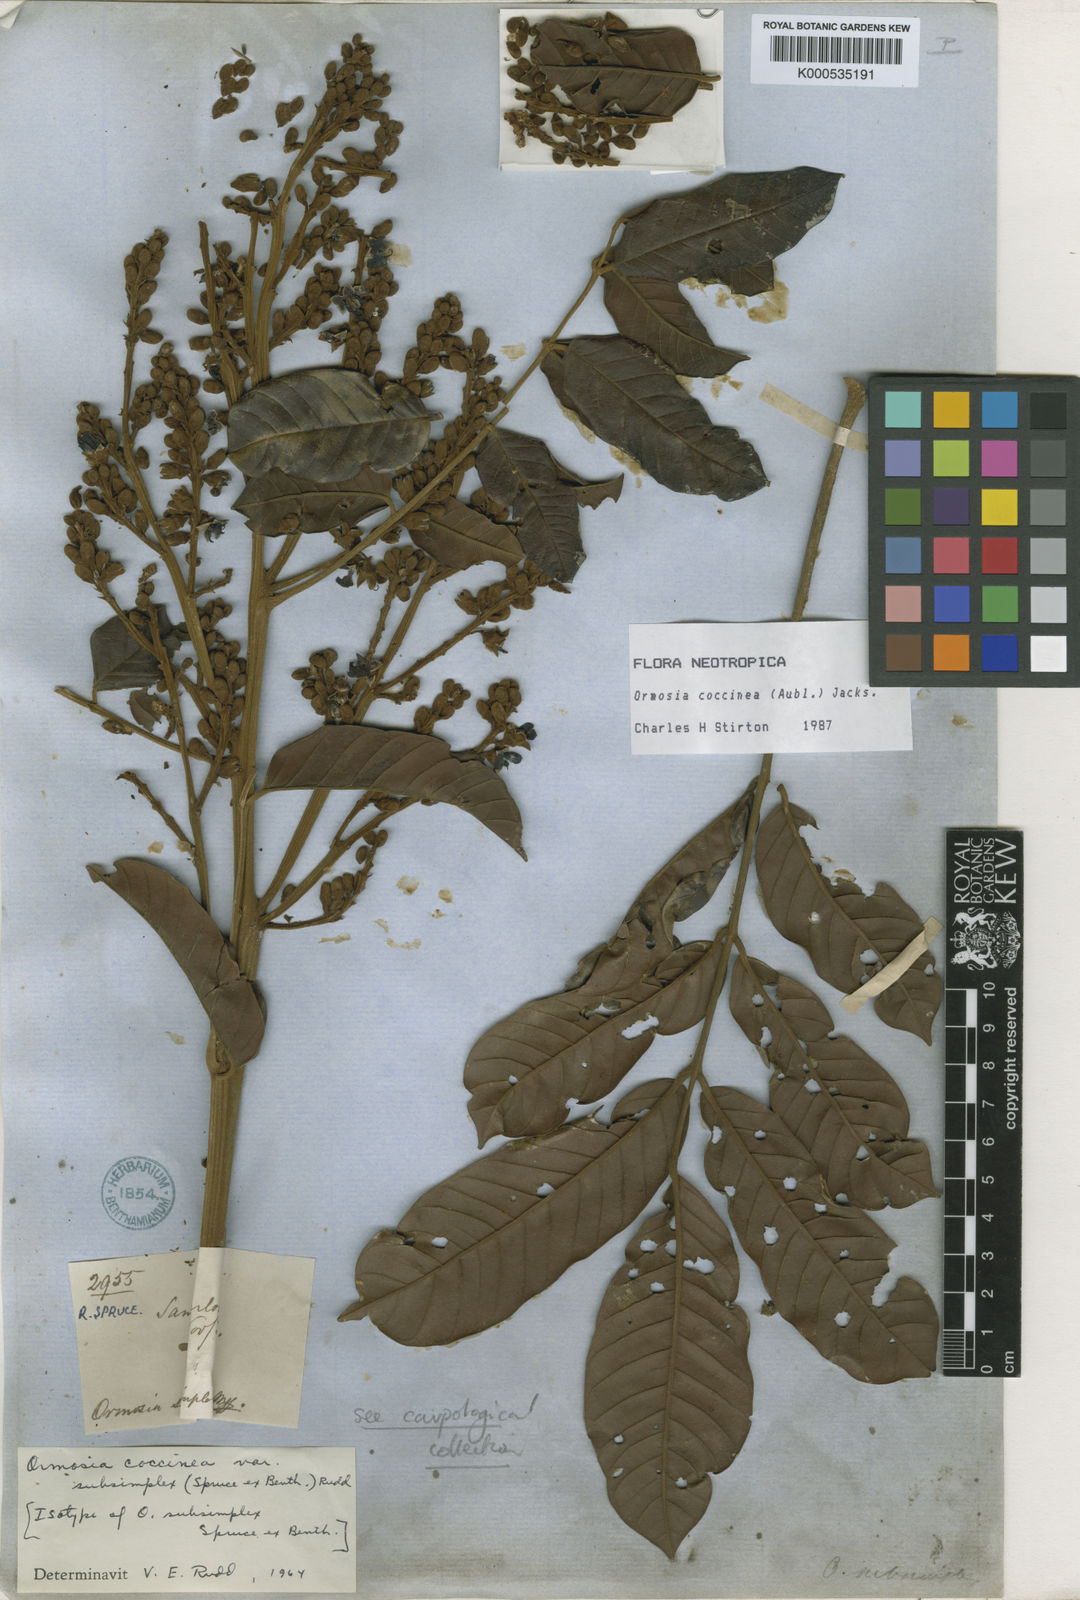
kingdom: Plantae
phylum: Tracheophyta
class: Magnoliopsida
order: Fabales
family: Fabaceae
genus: Ormosia
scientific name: Ormosia coccinea
